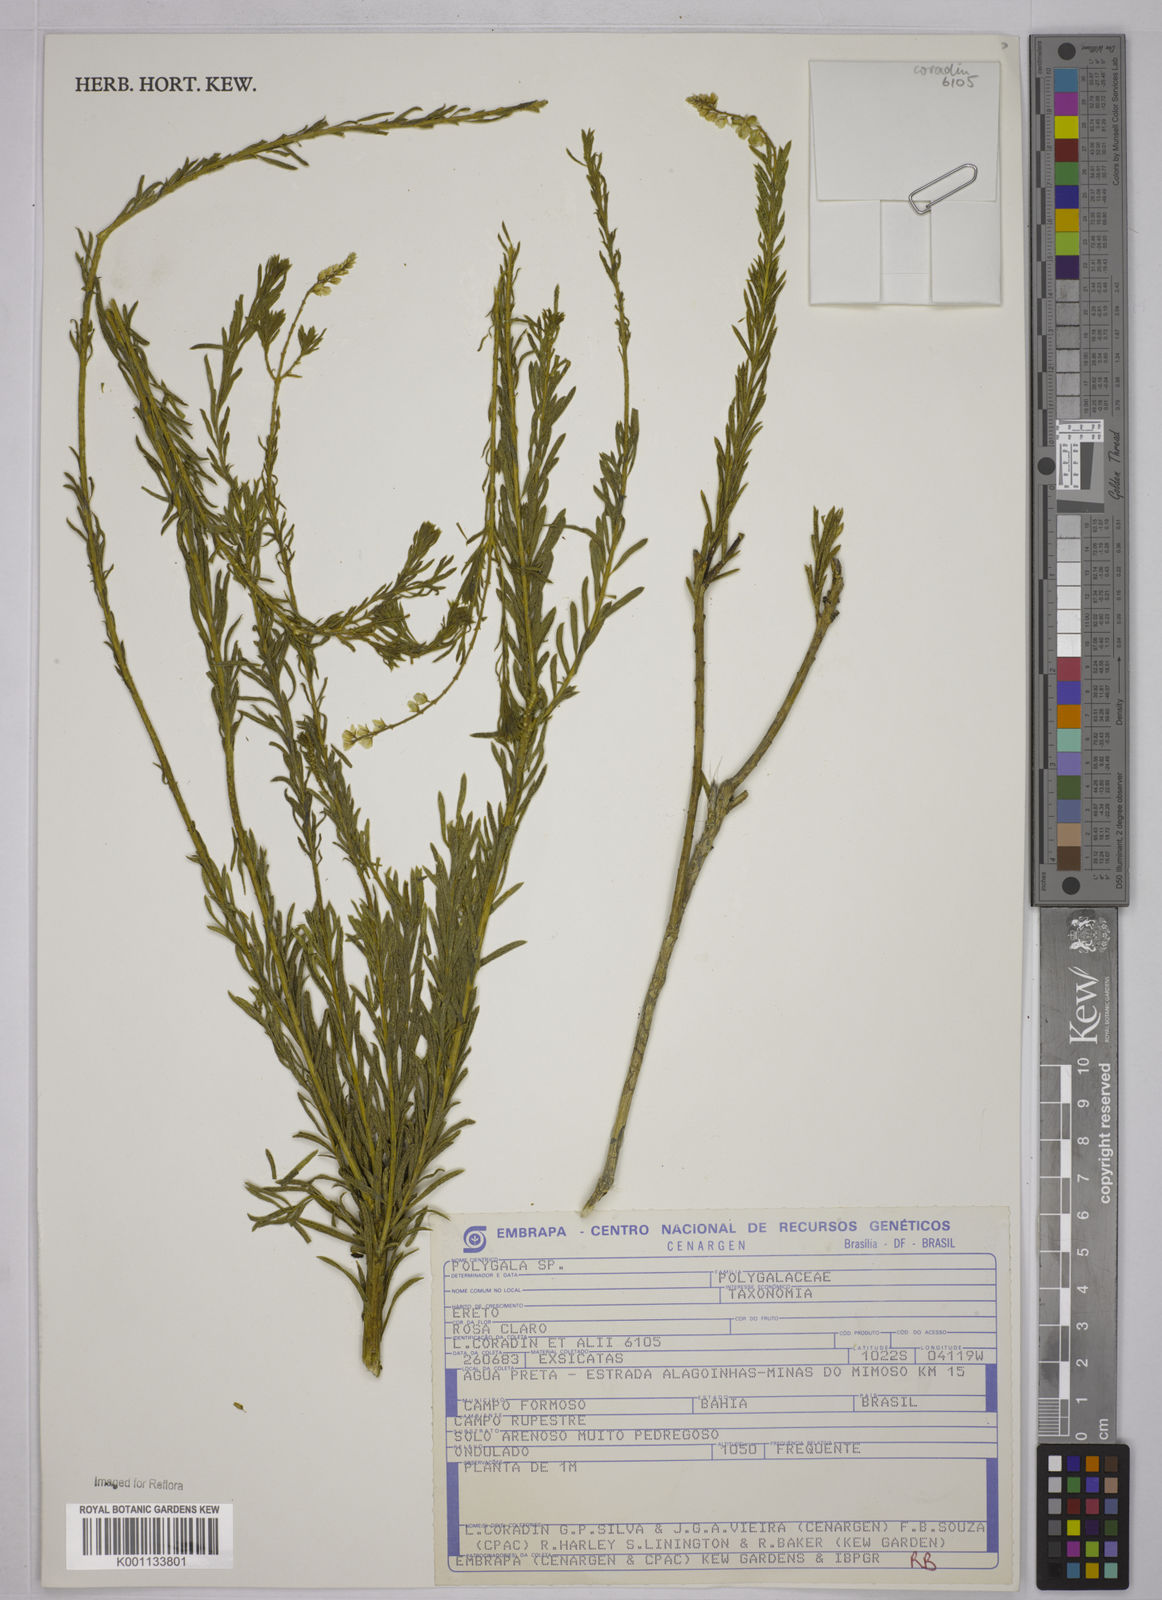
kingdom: Plantae
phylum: Tracheophyta
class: Magnoliopsida
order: Fabales
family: Polygalaceae
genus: Polygala
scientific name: Polygala
